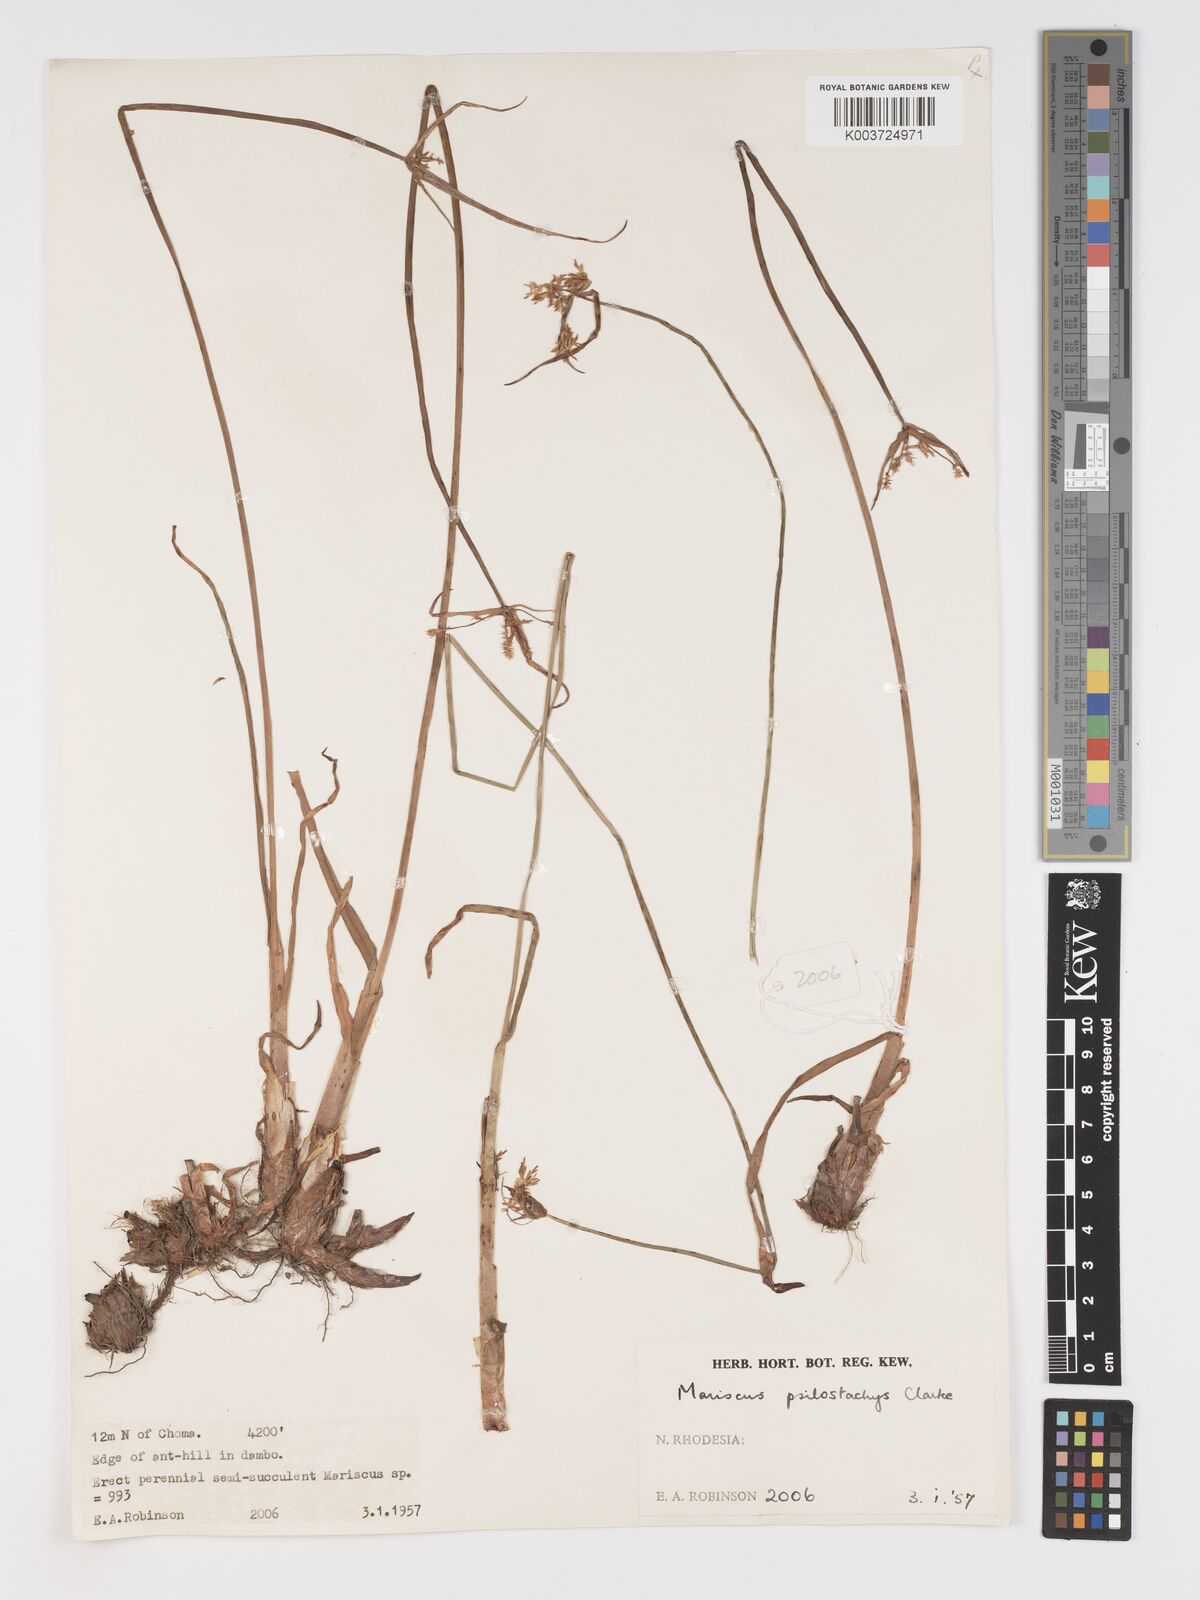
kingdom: Plantae
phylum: Tracheophyta
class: Liliopsida
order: Poales
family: Cyperaceae
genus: Cyperus
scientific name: Cyperus trigonellus
